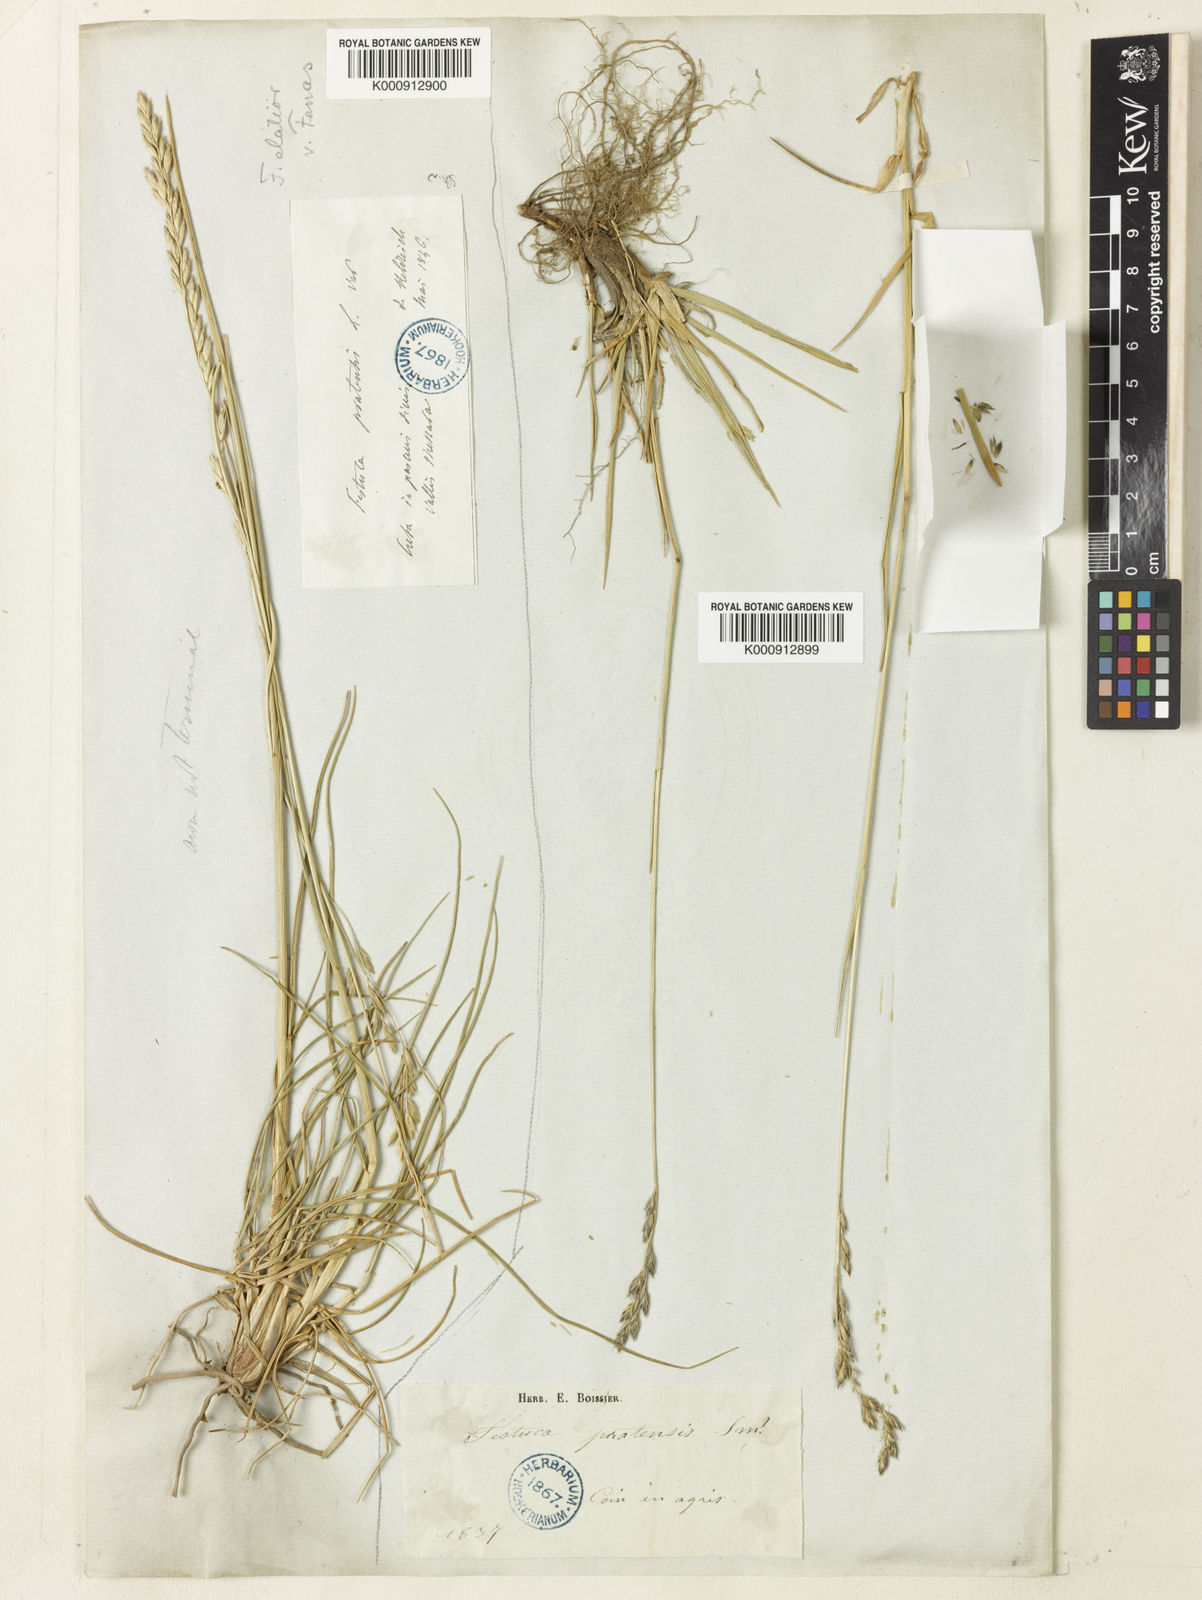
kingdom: Plantae
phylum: Tracheophyta
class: Liliopsida
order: Poales
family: Poaceae
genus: Lolium
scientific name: Lolium arundinaceum
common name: Reed fescue
